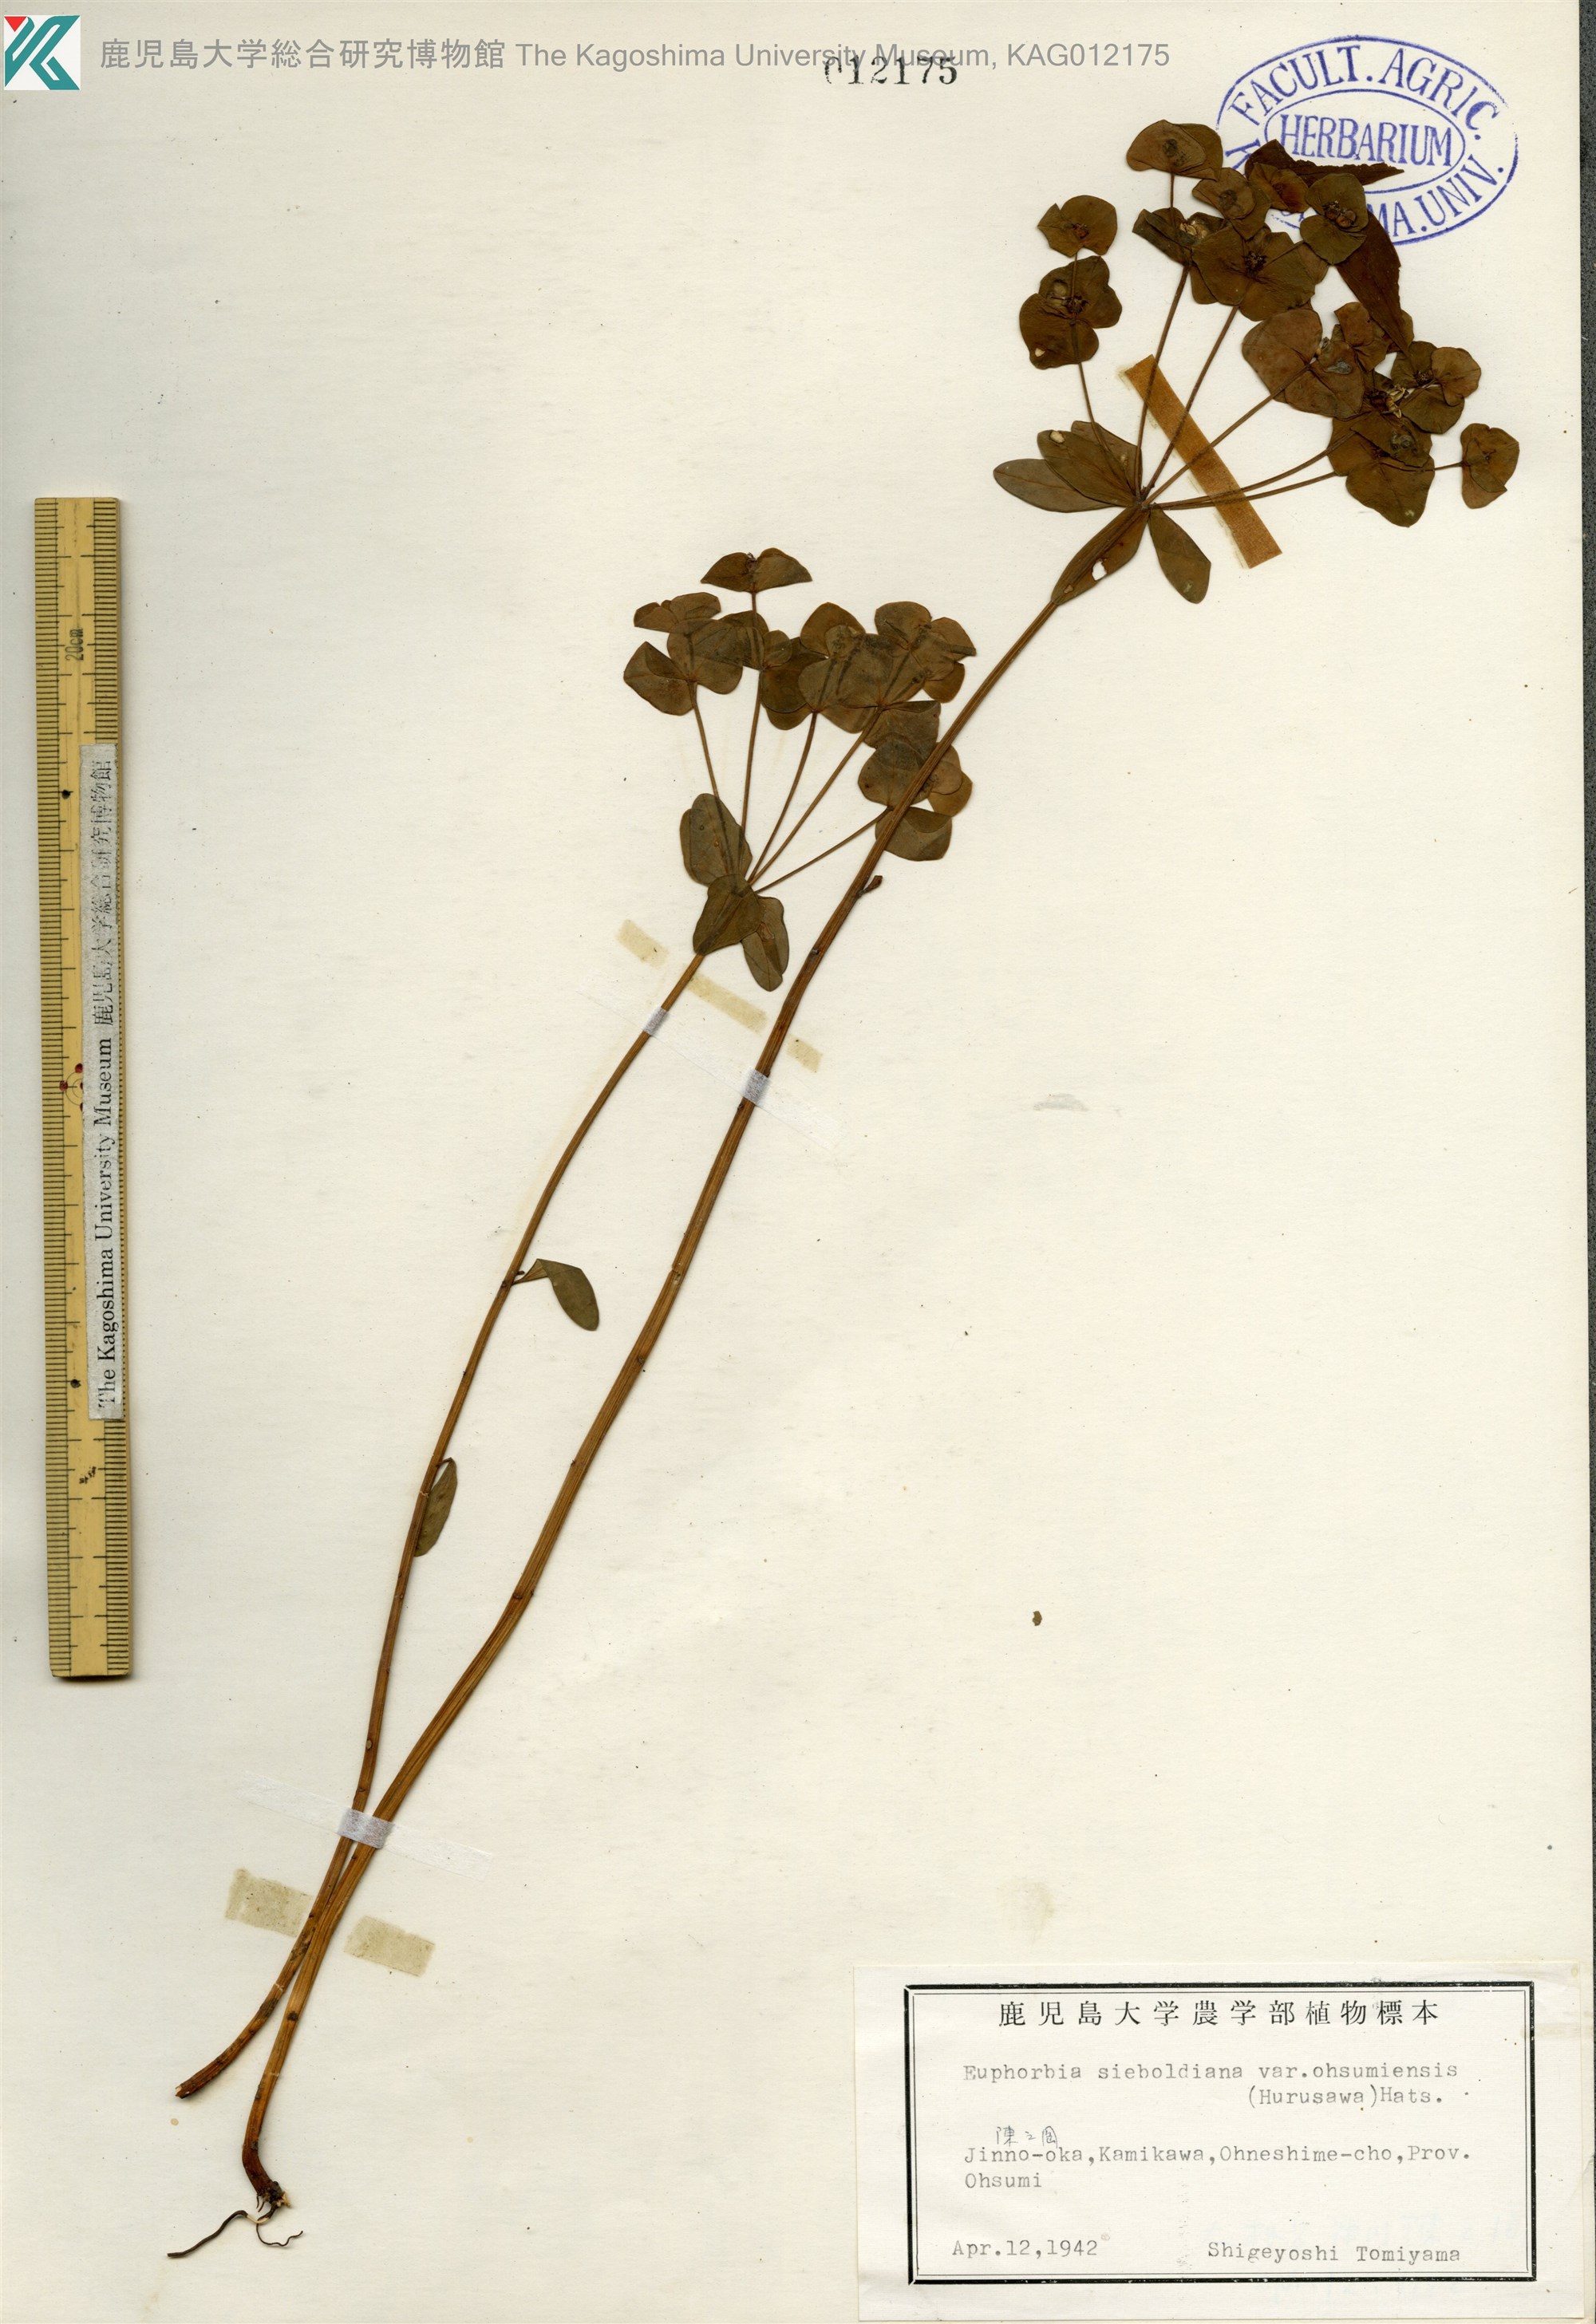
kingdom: Plantae
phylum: Tracheophyta
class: Magnoliopsida
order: Malpighiales
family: Euphorbiaceae
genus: Euphorbia
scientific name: Euphorbia sieboldiana
